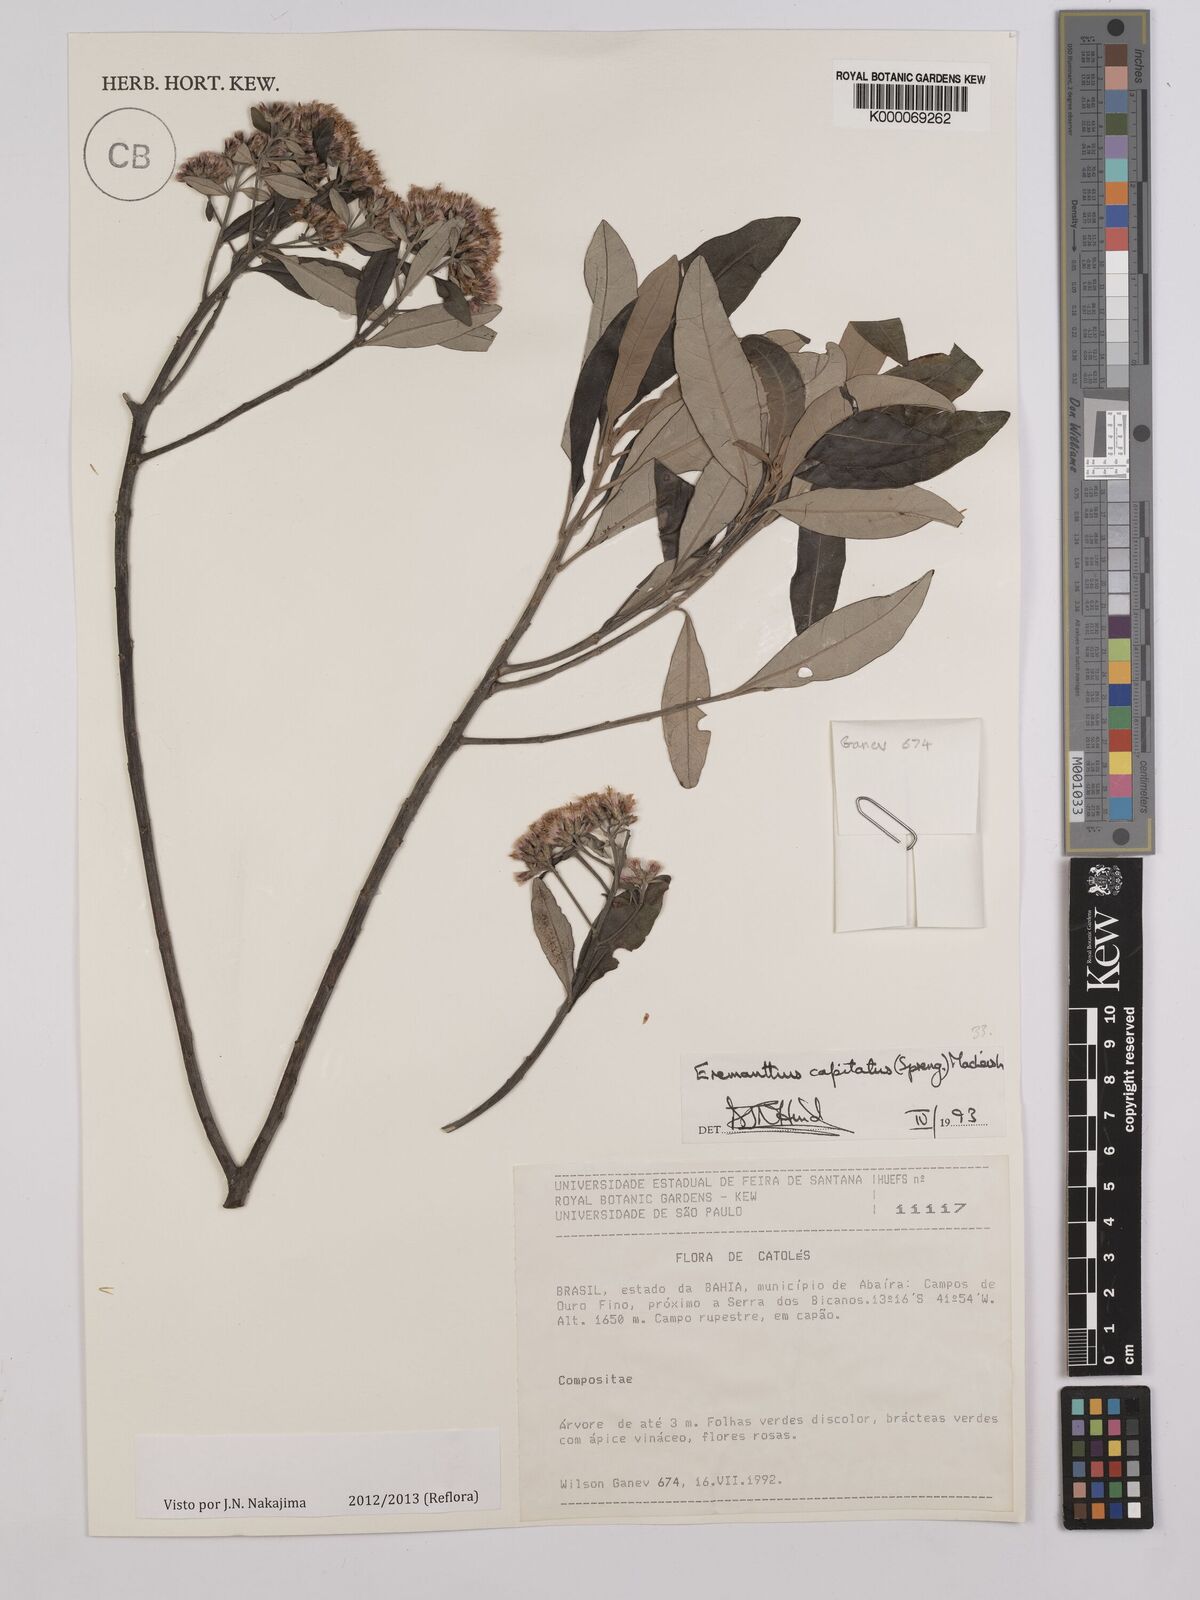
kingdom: Plantae
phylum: Tracheophyta
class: Magnoliopsida
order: Asterales
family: Asteraceae
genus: Eremanthus
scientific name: Eremanthus capitatus
